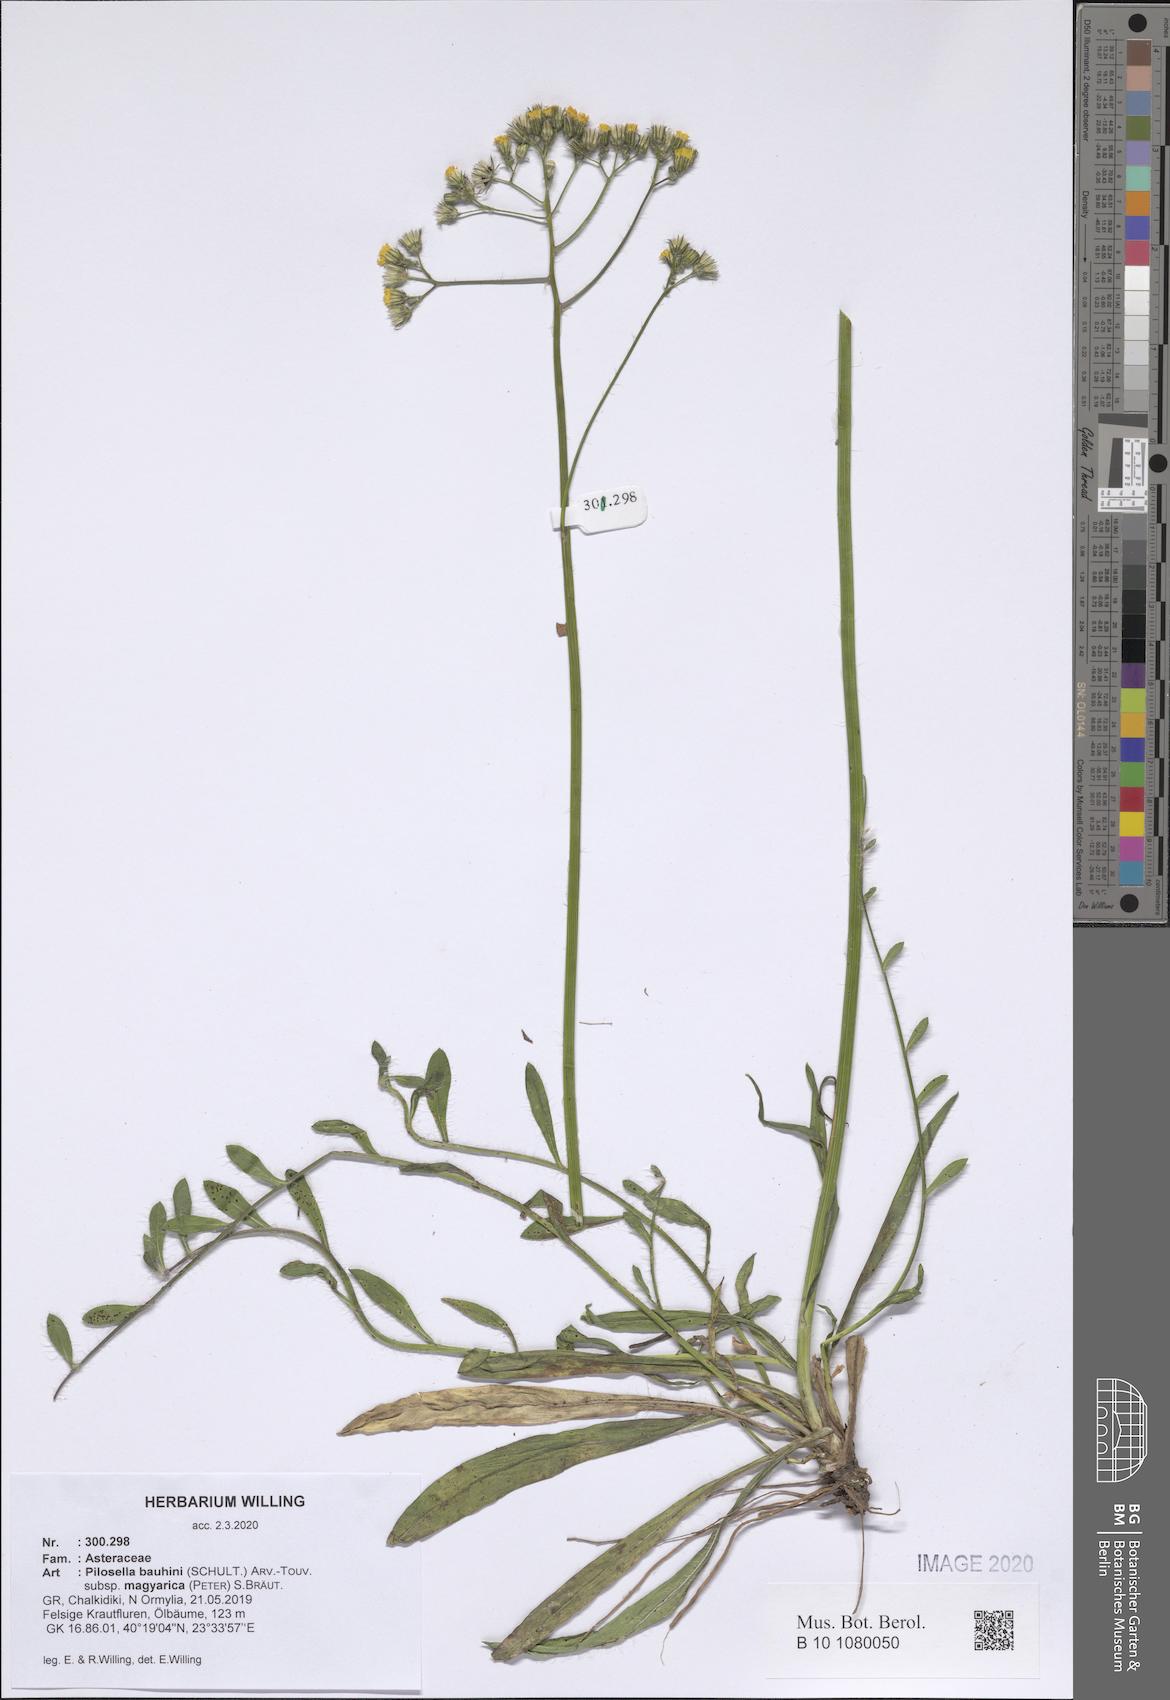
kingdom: Plantae
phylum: Tracheophyta
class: Magnoliopsida
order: Asterales
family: Asteraceae
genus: Pilosella
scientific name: Pilosella bauhini
